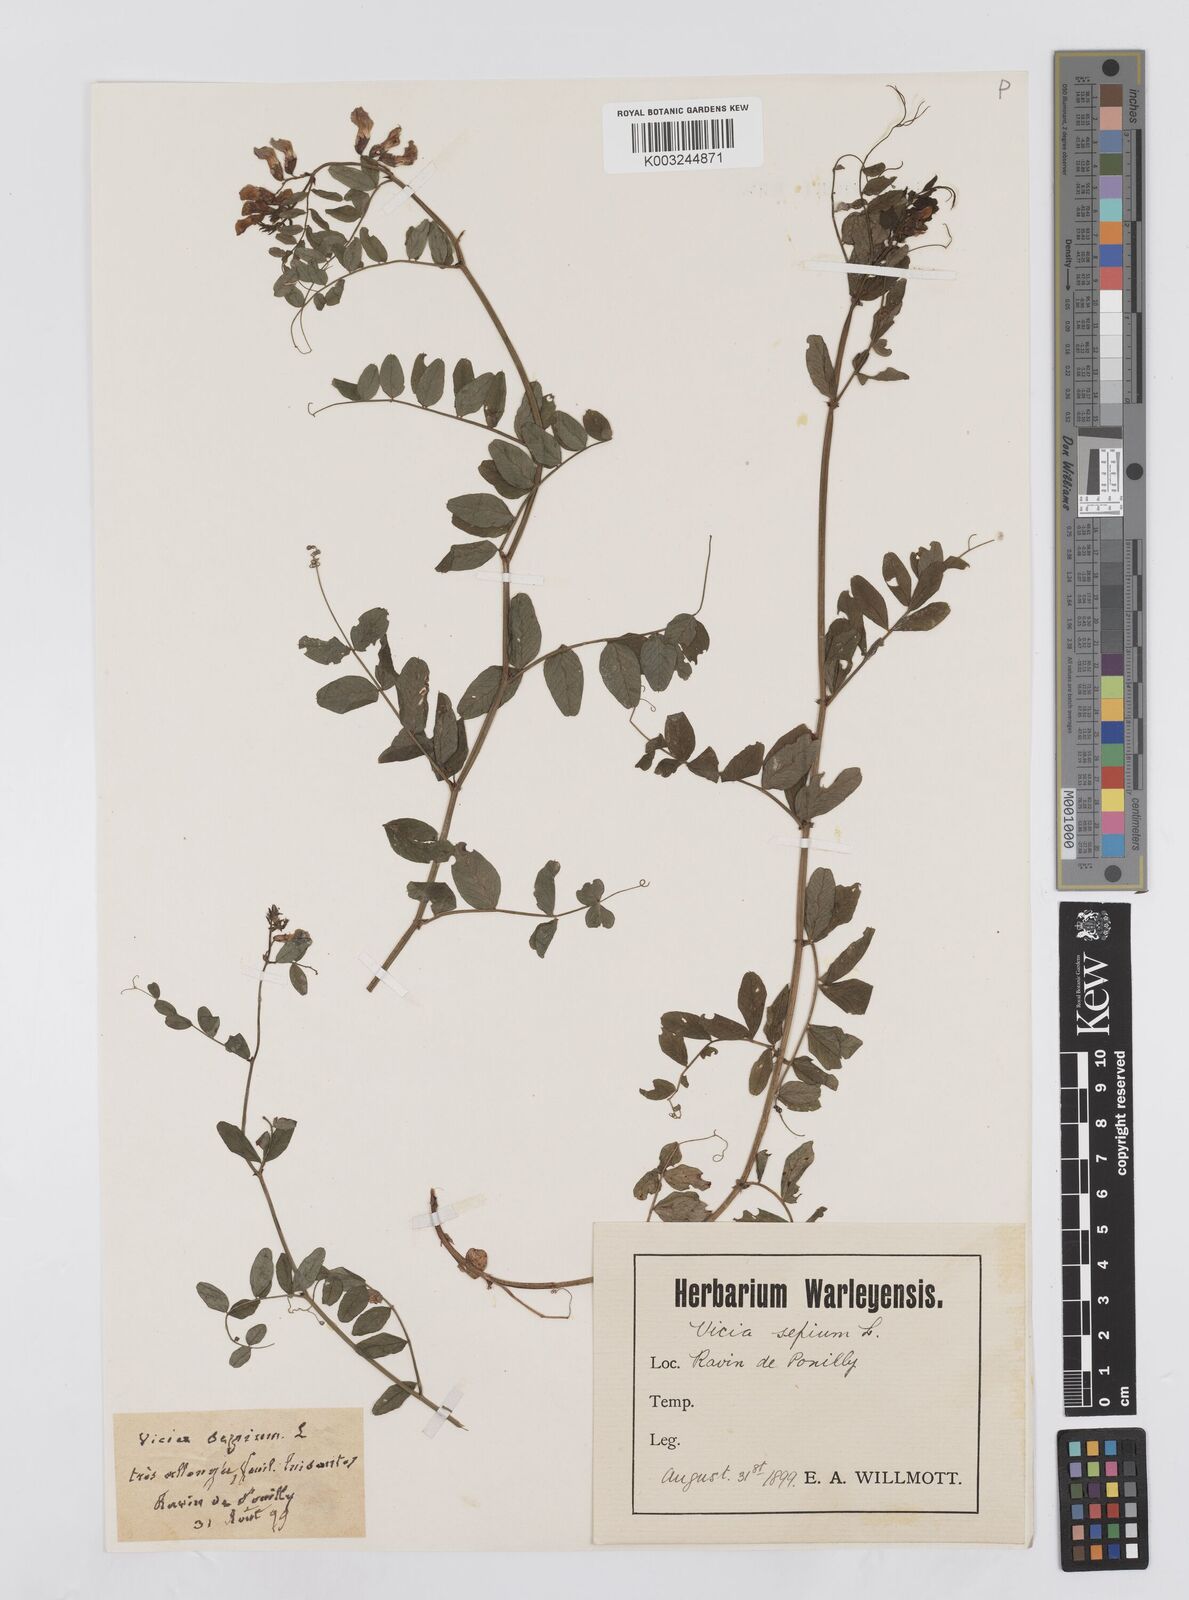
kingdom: Plantae
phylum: Tracheophyta
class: Magnoliopsida
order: Fabales
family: Fabaceae
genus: Vicia
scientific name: Vicia sepium
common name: Bush vetch
